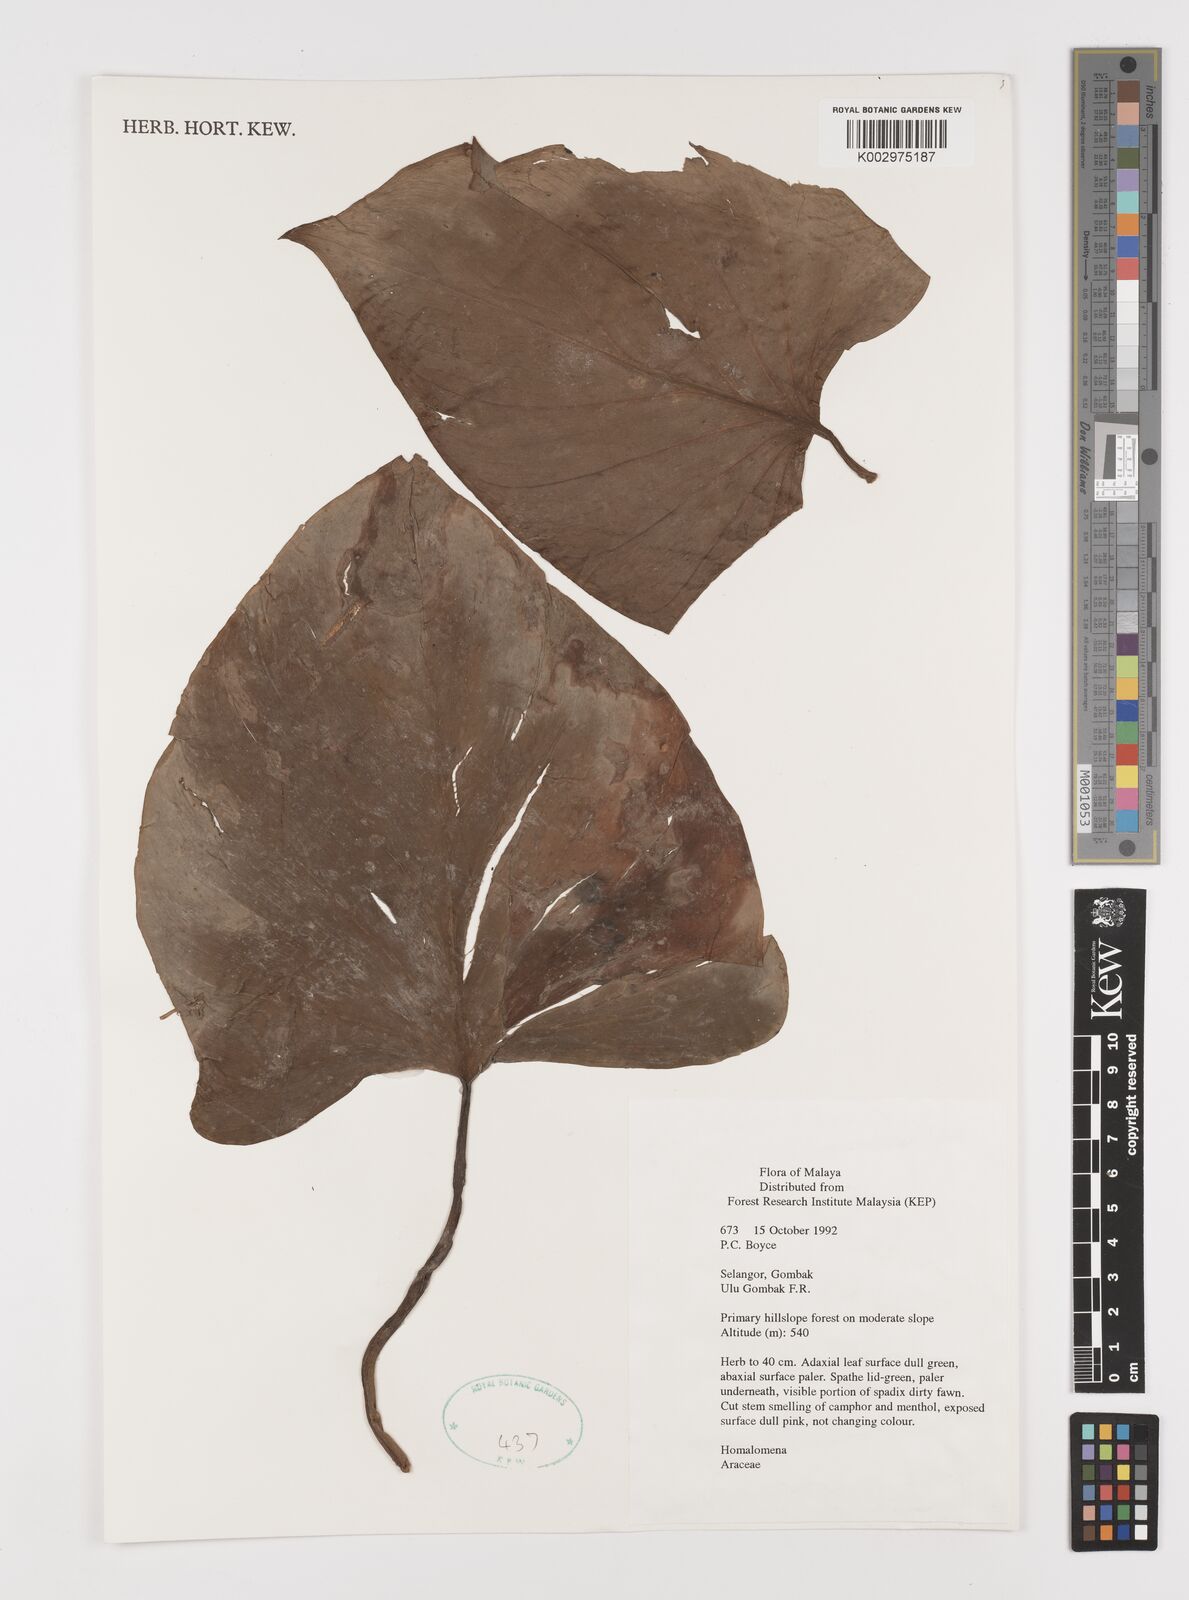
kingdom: Plantae
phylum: Tracheophyta
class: Liliopsida
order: Alismatales
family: Araceae
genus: Homalomena
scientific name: Homalomena
